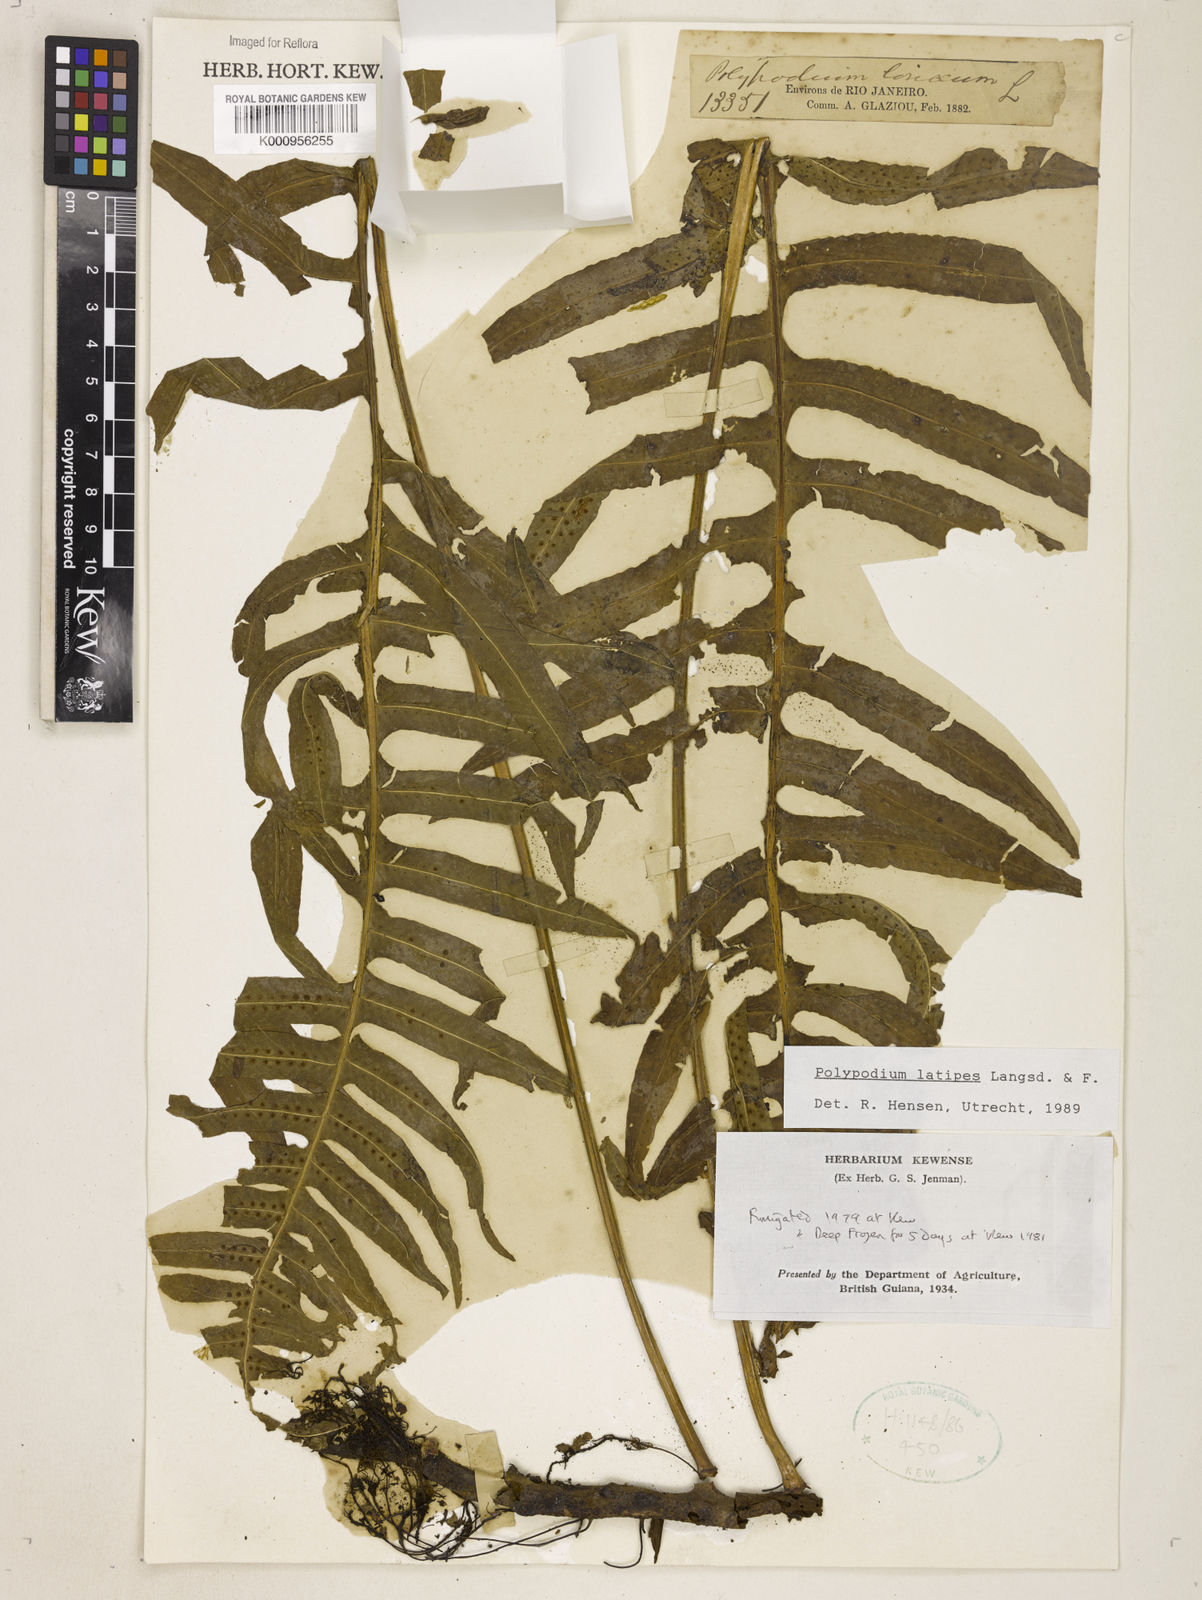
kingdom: Plantae
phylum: Tracheophyta
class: Polypodiopsida
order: Polypodiales
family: Polypodiaceae
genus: Serpocaulon
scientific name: Serpocaulon loriceum
